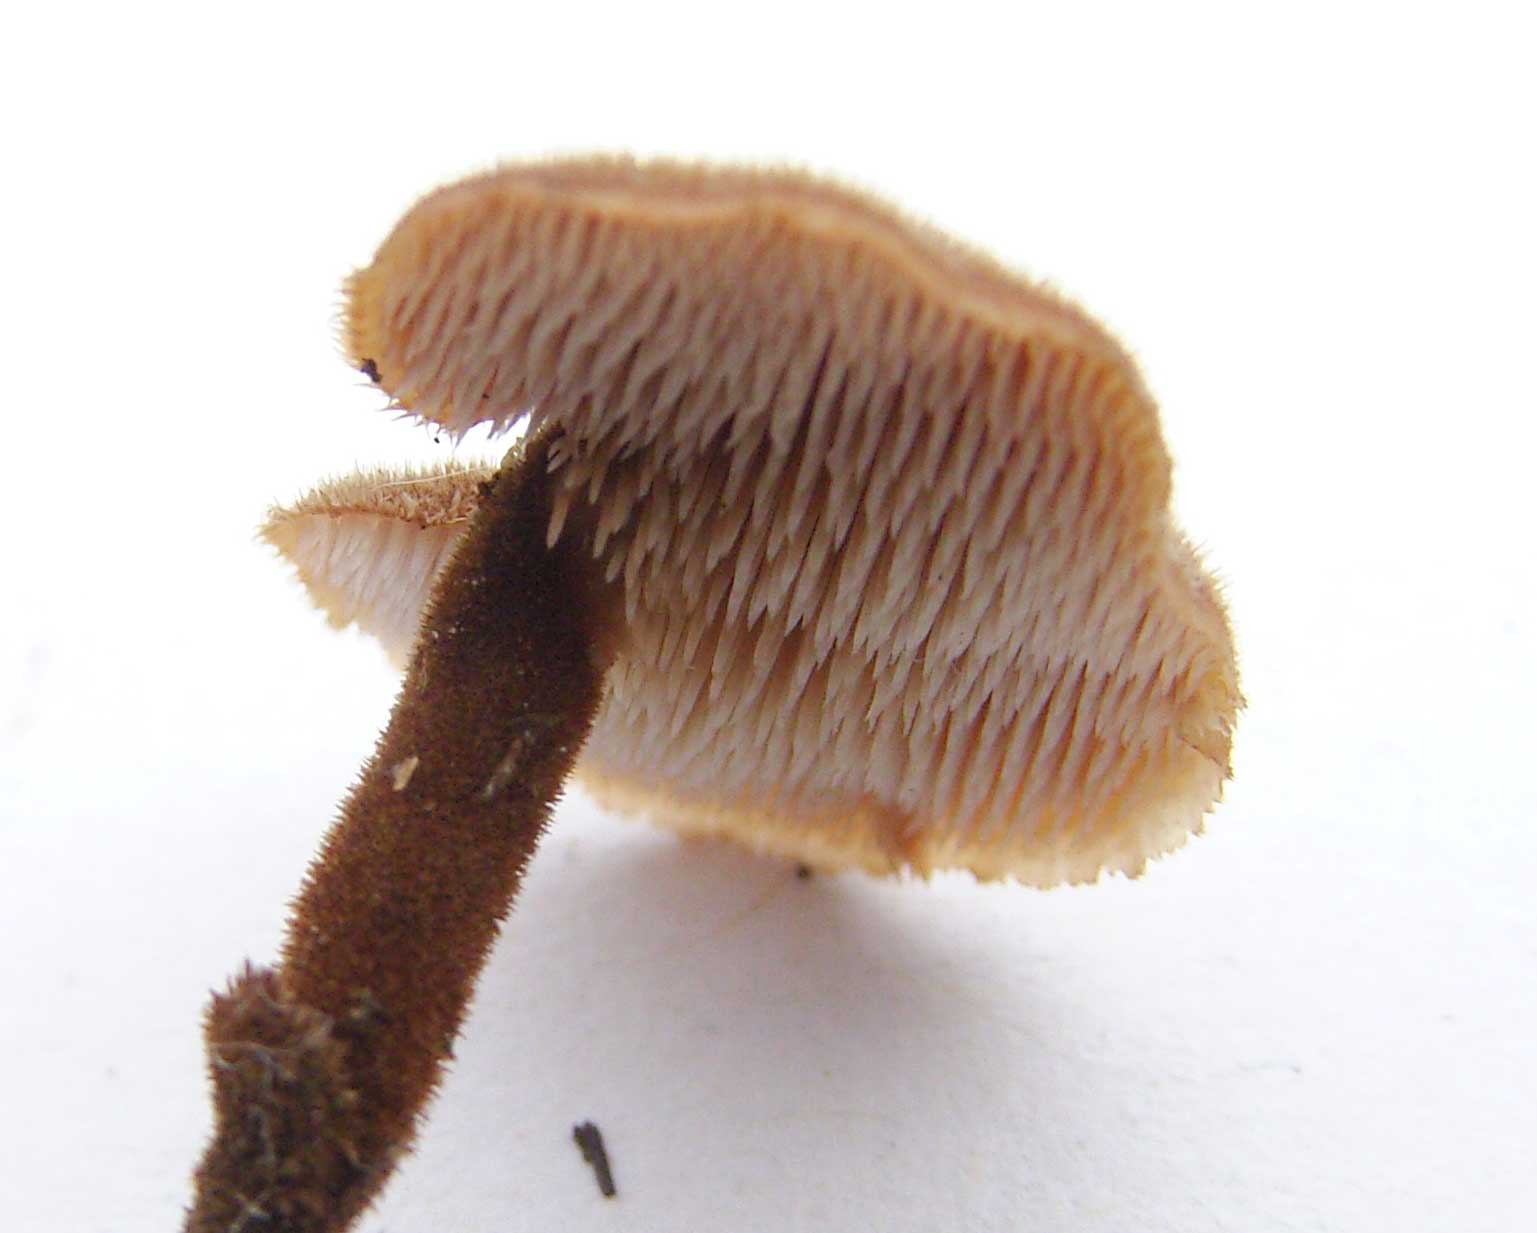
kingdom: Fungi
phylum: Basidiomycota
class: Agaricomycetes
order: Russulales
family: Auriscalpiaceae
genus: Auriscalpium
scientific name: Auriscalpium
